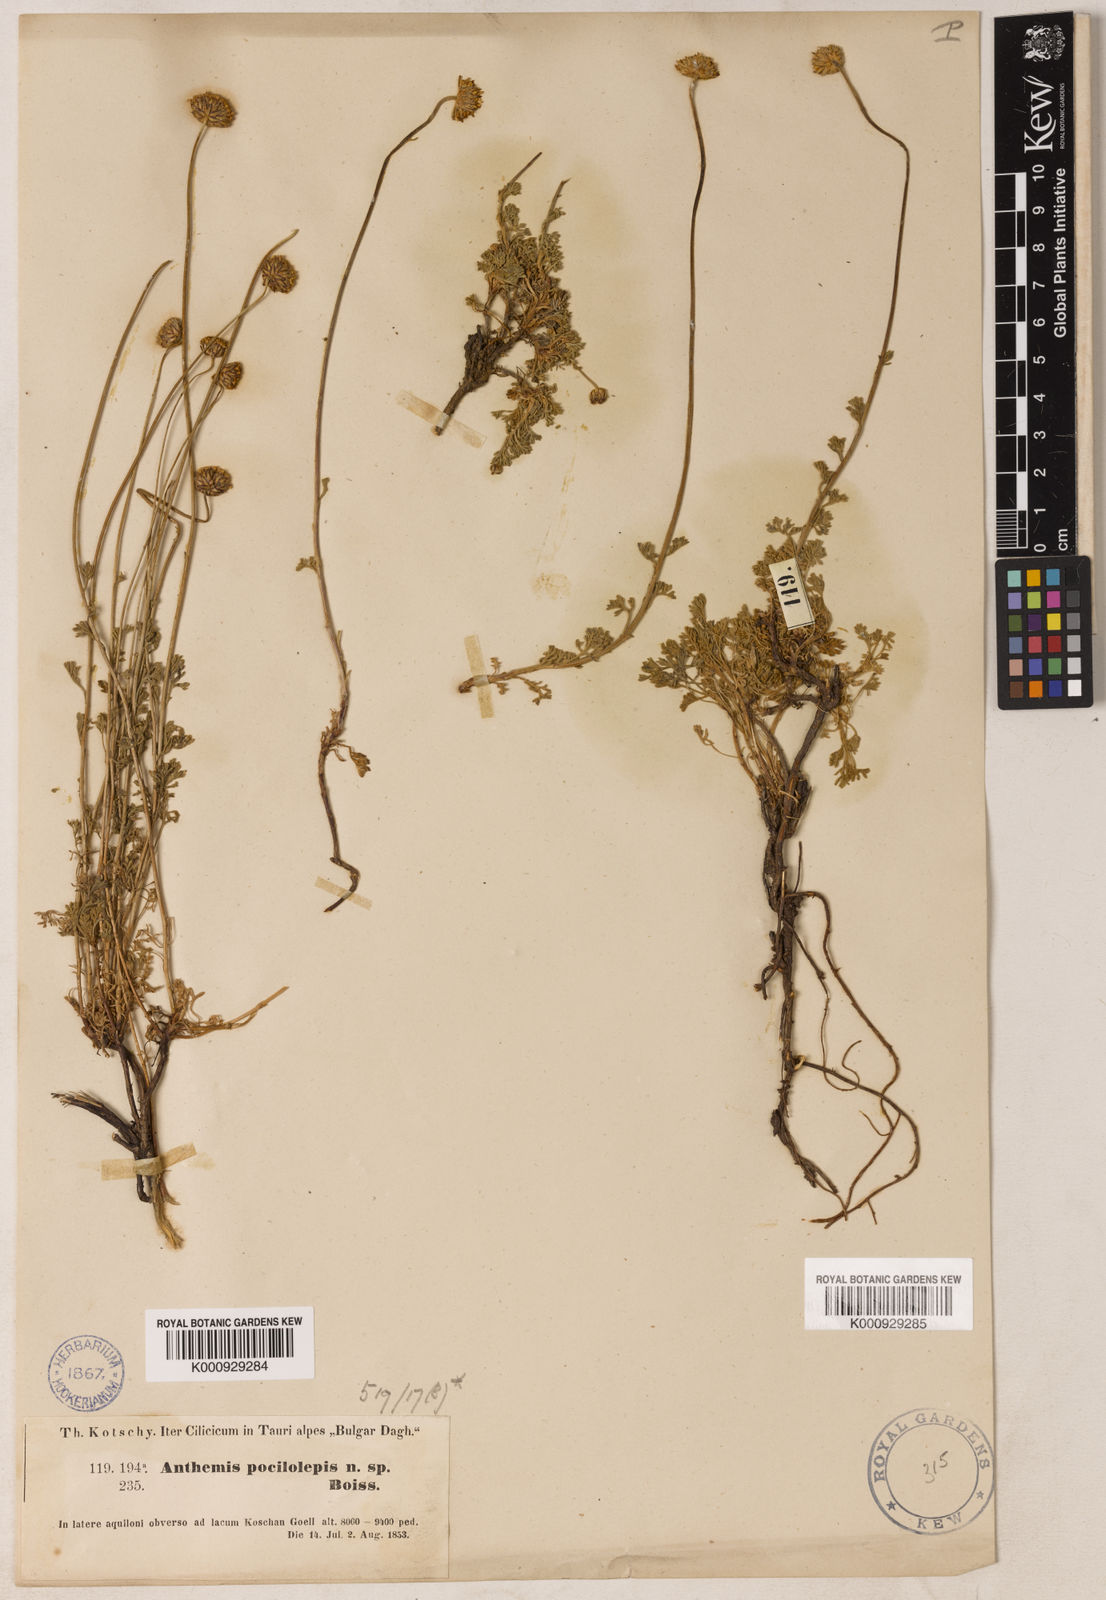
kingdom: Plantae
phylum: Tracheophyta
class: Magnoliopsida
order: Asterales
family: Asteraceae
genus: Anthemis
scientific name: Anthemis kotschyana
